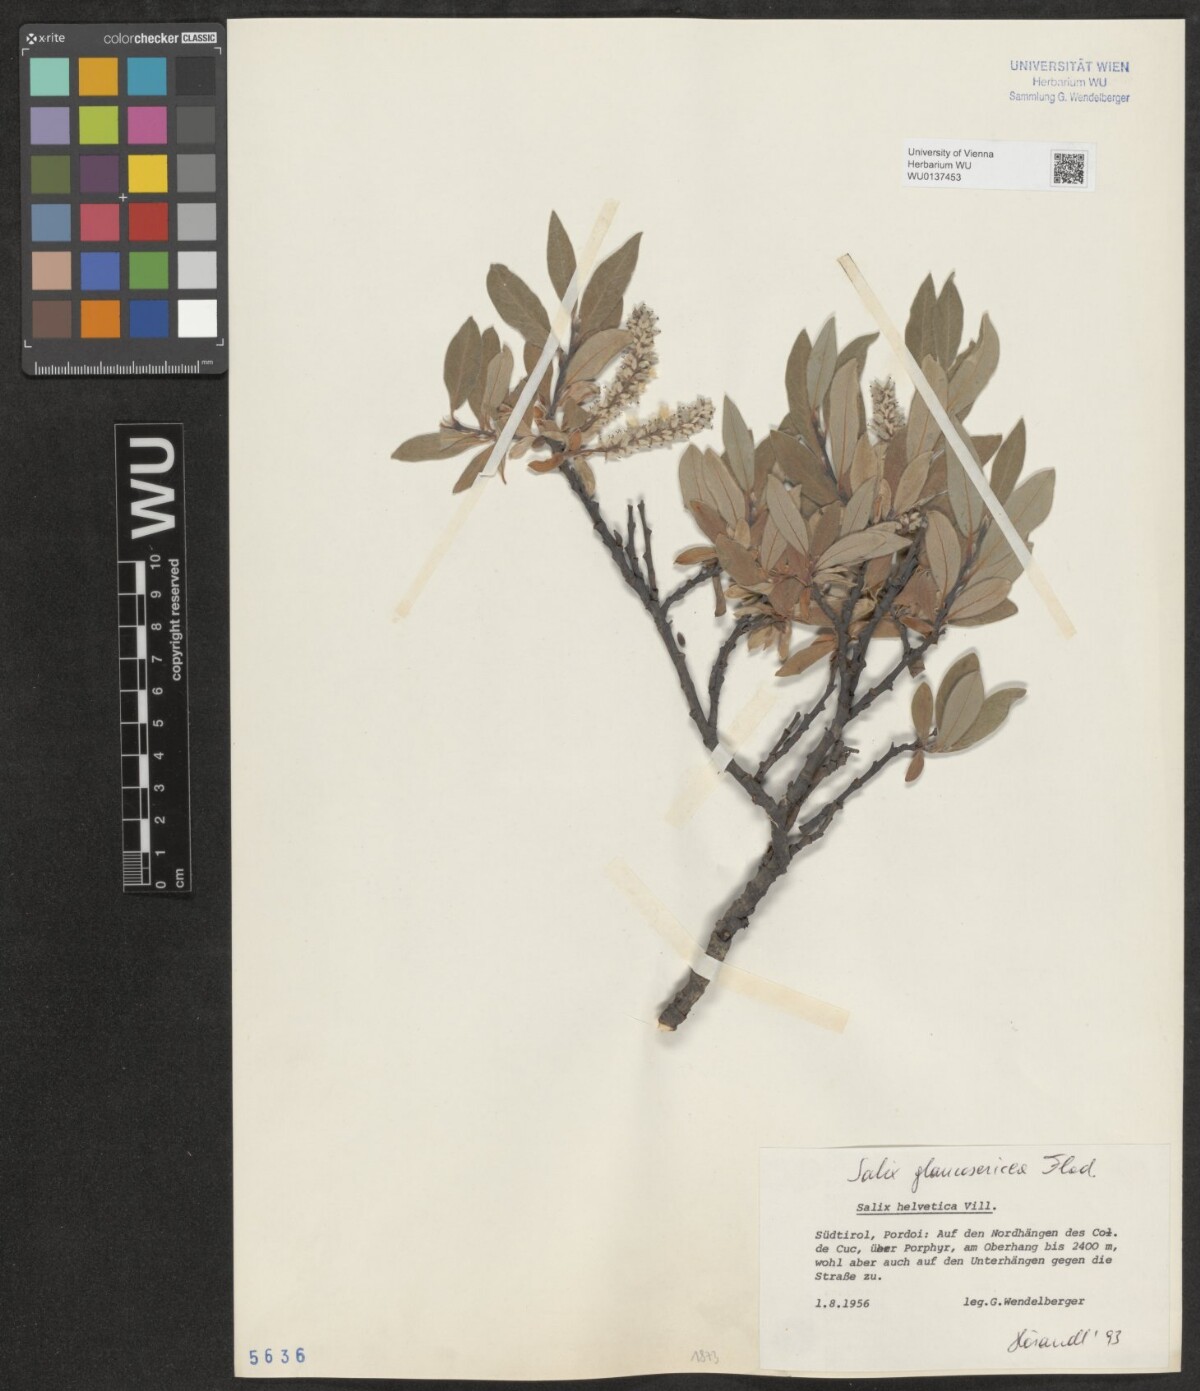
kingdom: Plantae
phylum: Tracheophyta
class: Magnoliopsida
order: Malpighiales
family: Salicaceae
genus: Salix
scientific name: Salix glaucosericea
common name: Alpine gray willow
